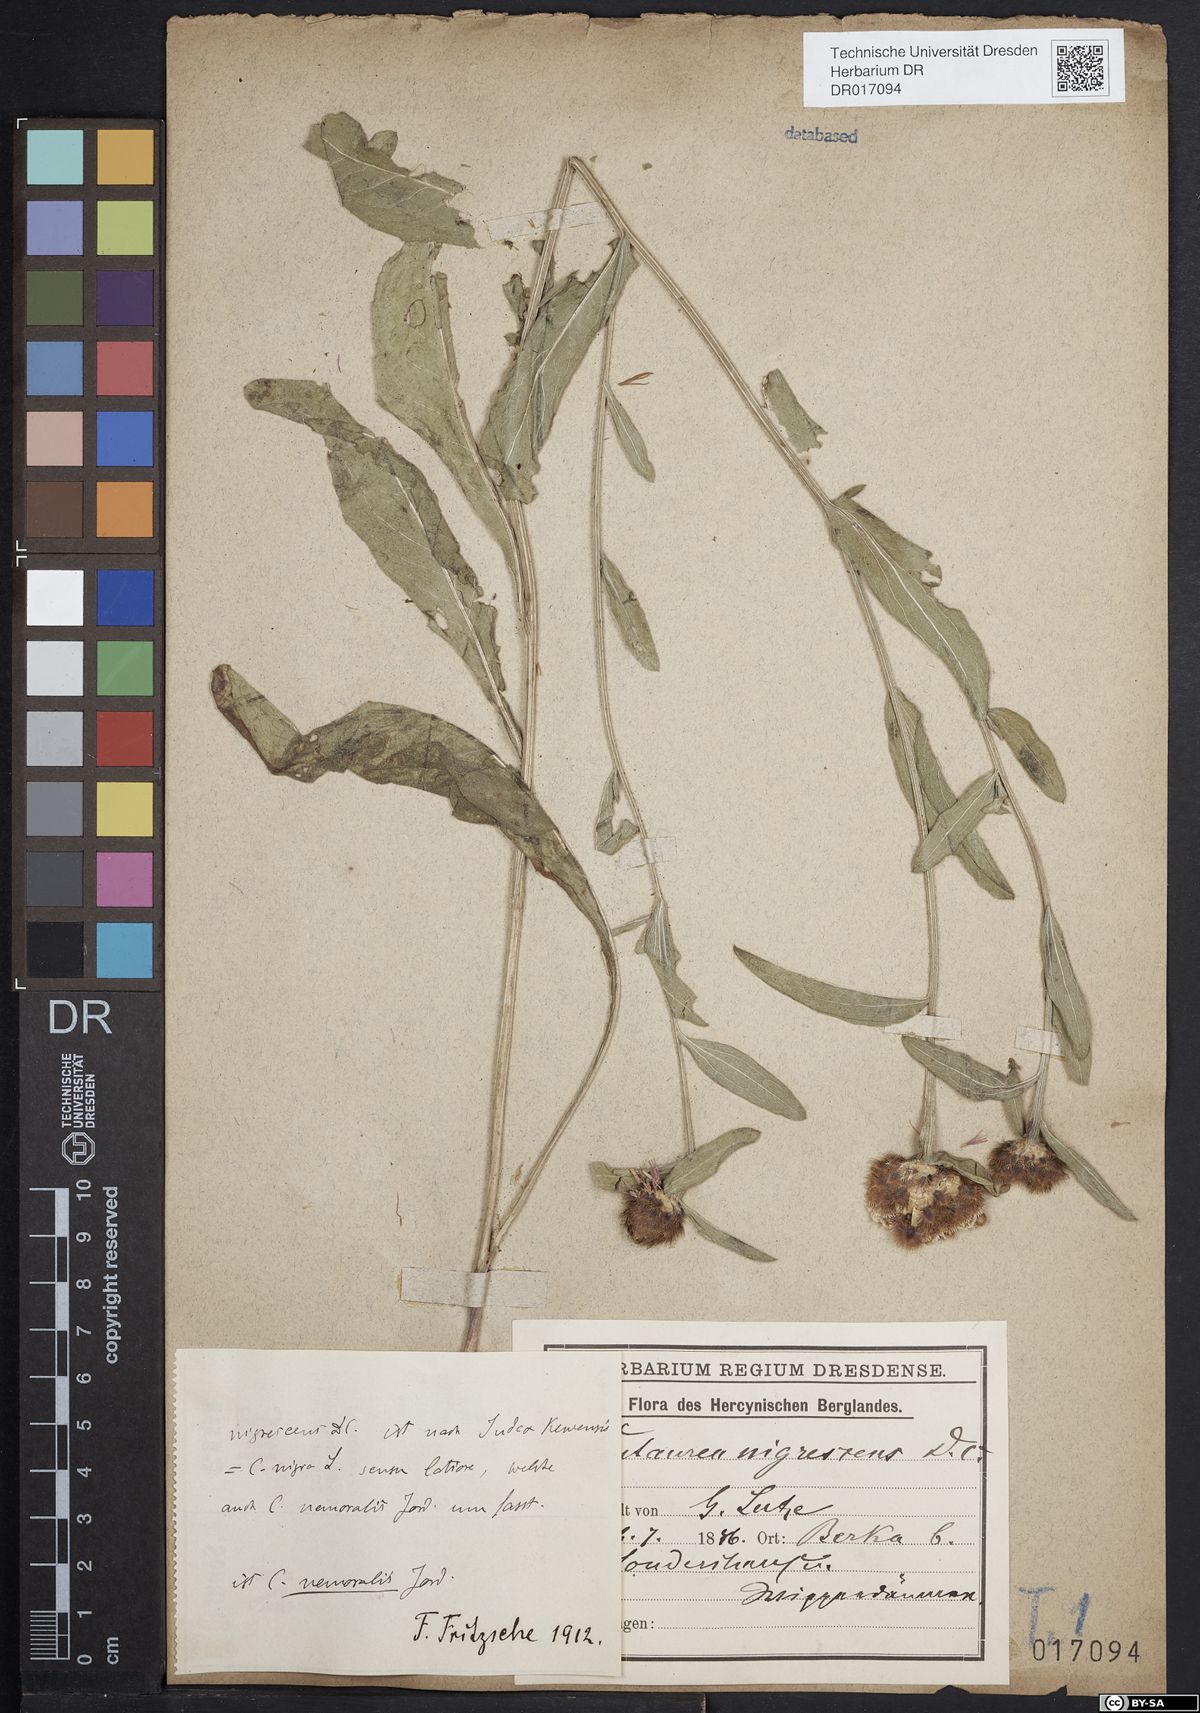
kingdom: Plantae
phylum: Tracheophyta
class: Magnoliopsida
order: Asterales
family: Asteraceae
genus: Centaurea
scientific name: Centaurea nigra
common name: Lesser knapweed
